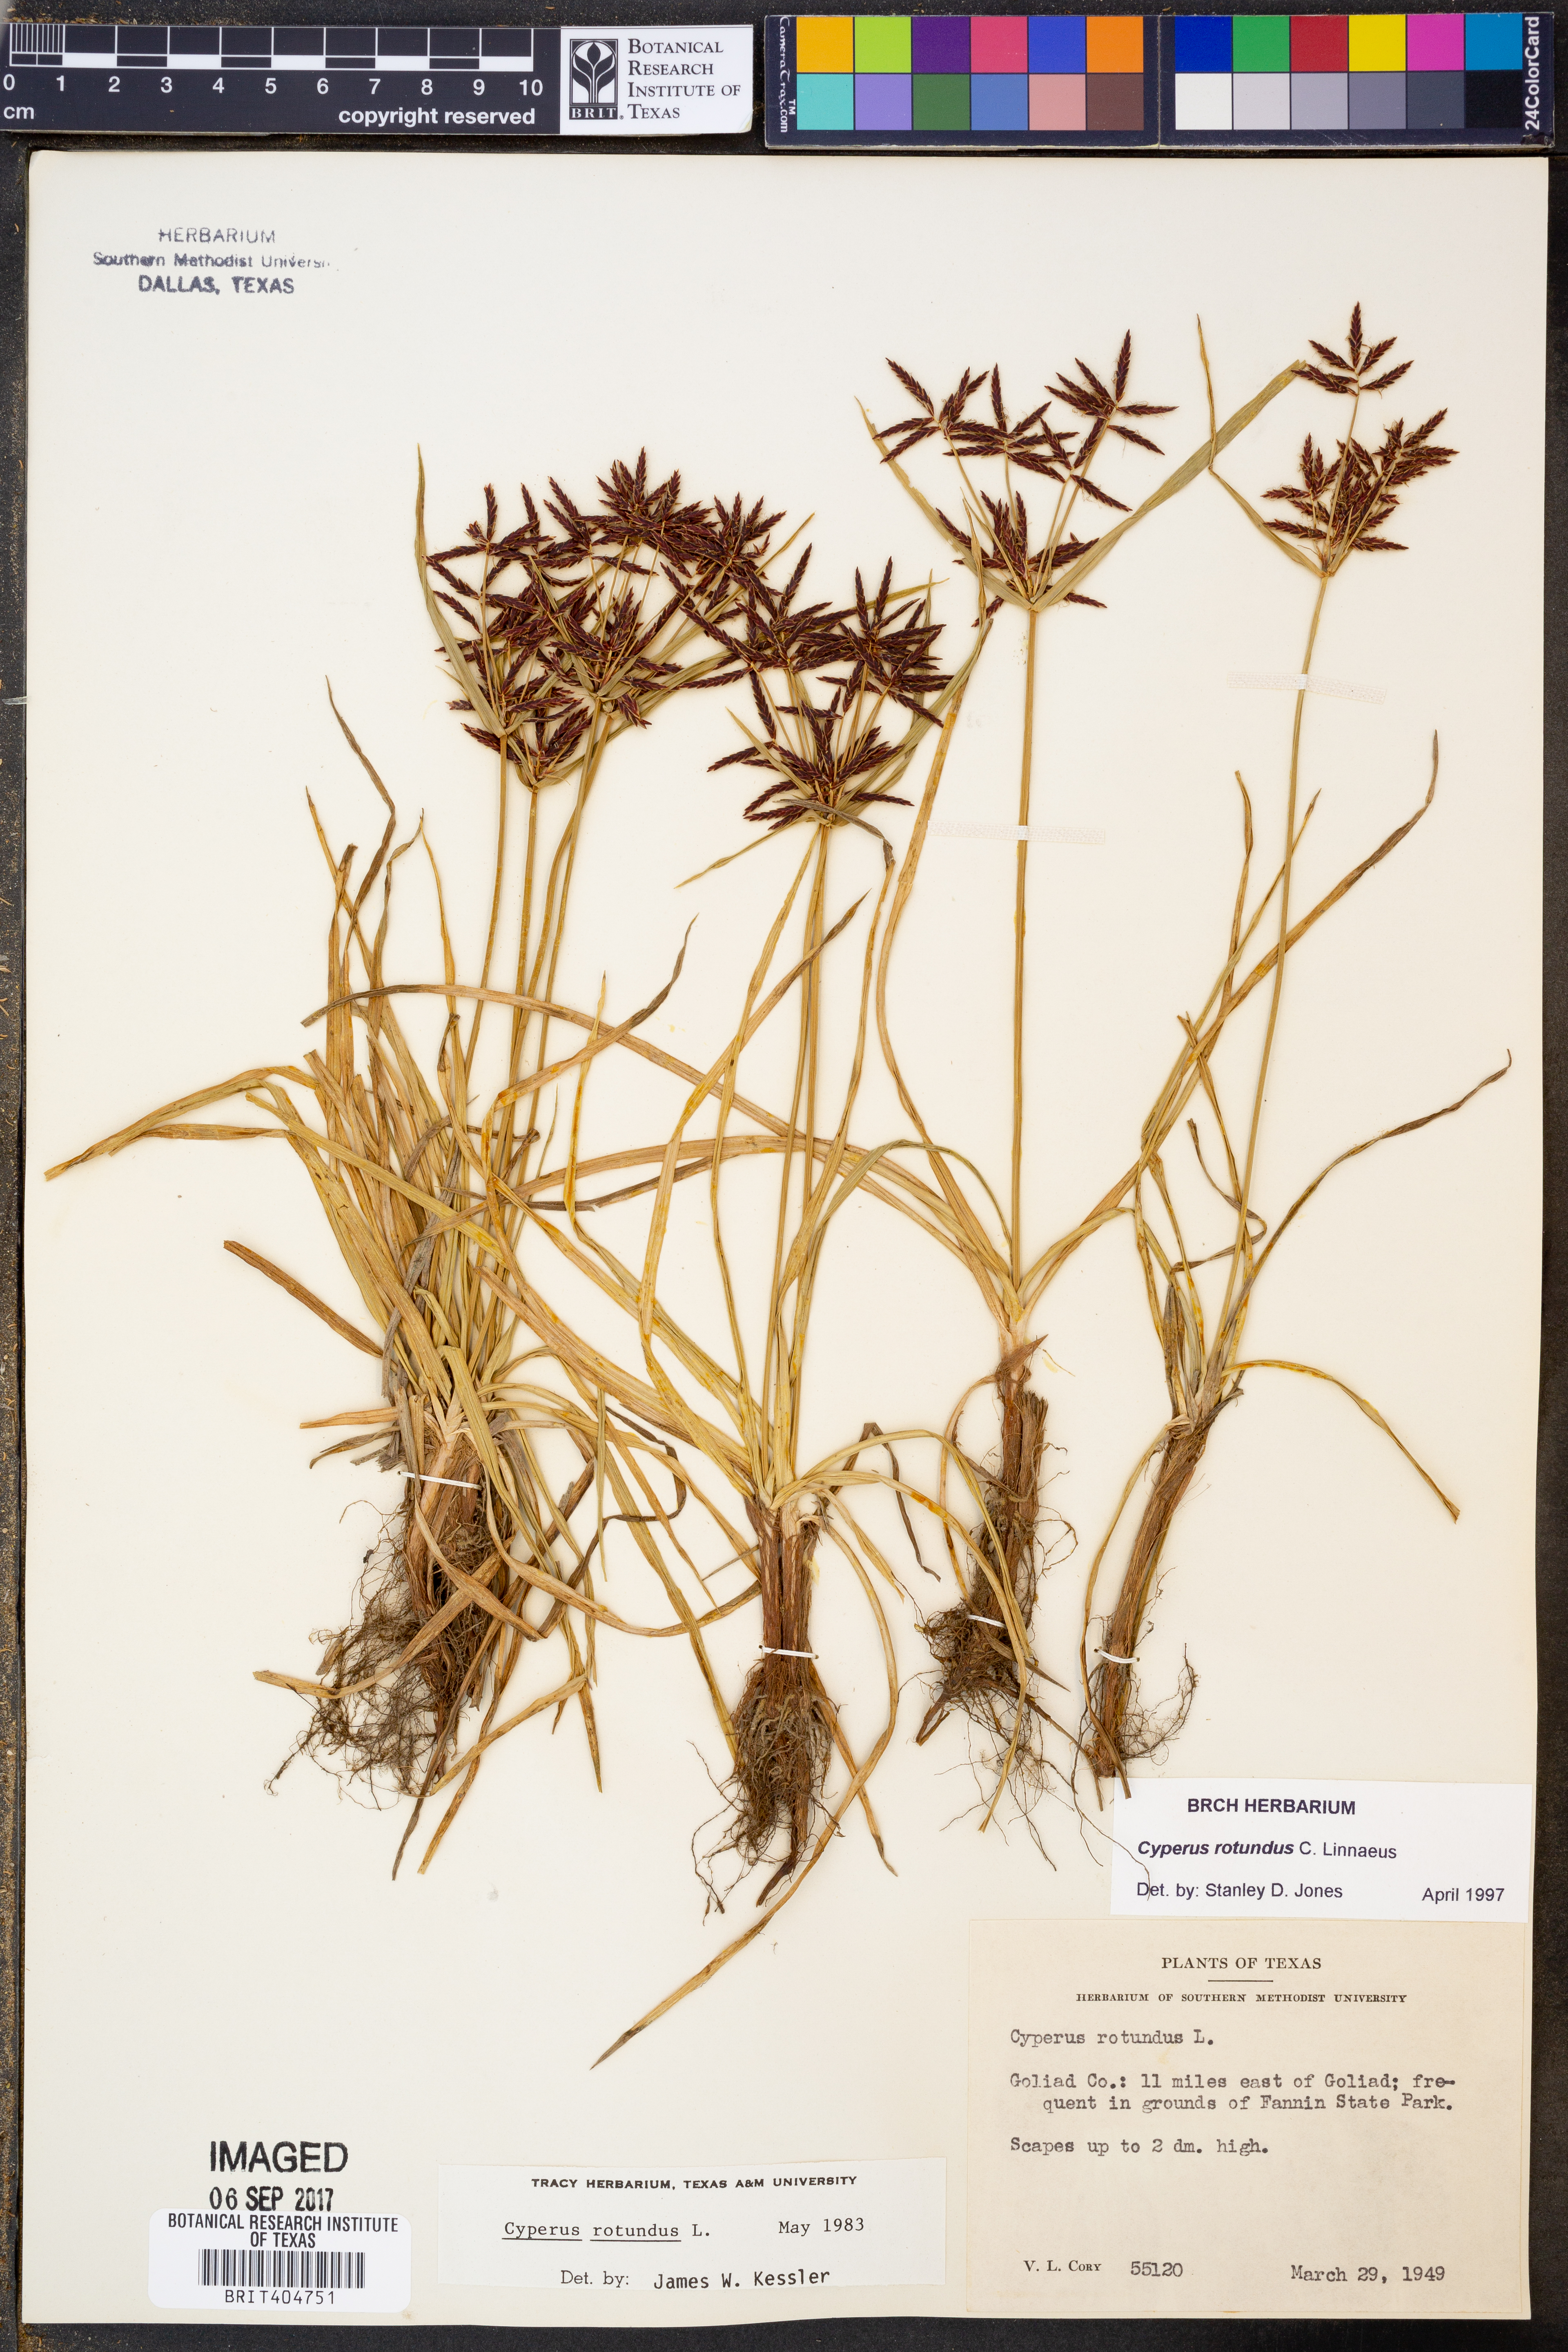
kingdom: Plantae
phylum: Tracheophyta
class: Liliopsida
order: Poales
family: Cyperaceae
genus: Cyperus
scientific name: Cyperus rotundus
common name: Nutgrass
